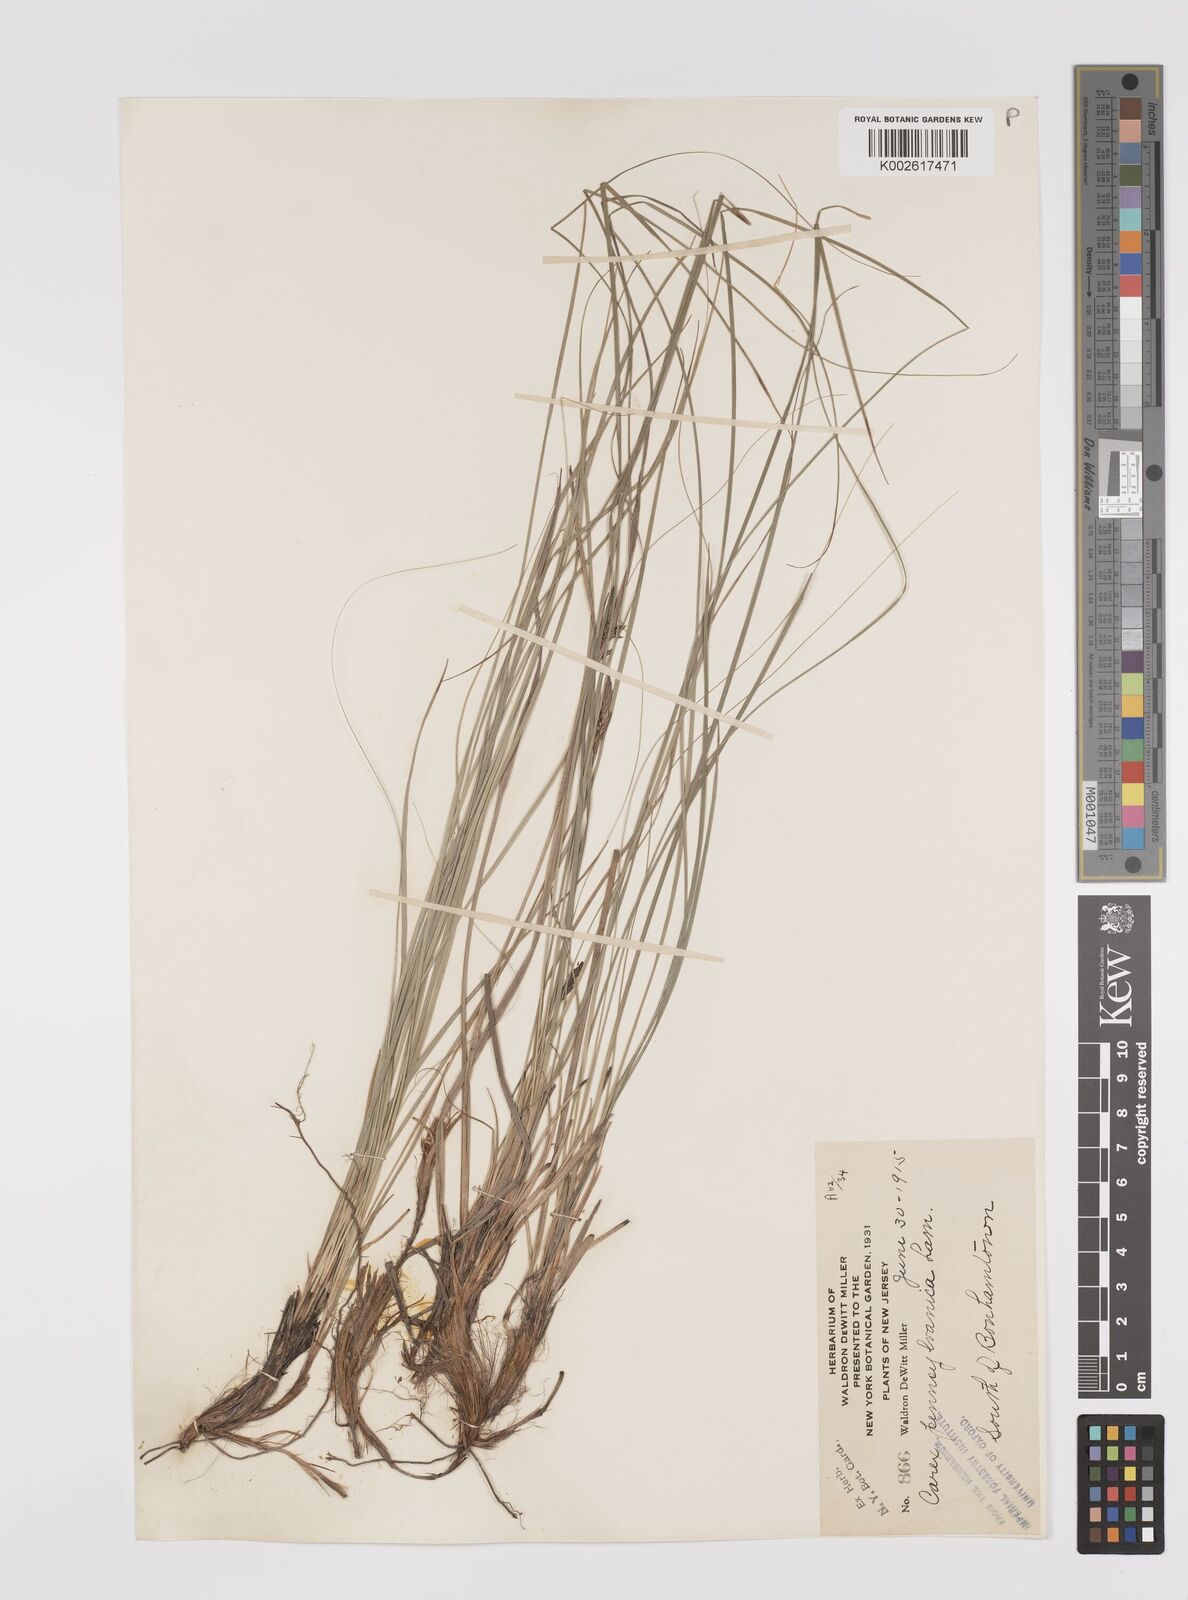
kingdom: Plantae
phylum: Tracheophyta
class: Liliopsida
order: Poales
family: Cyperaceae
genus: Carex
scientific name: Carex pensylvanica
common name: Common oak sedge
